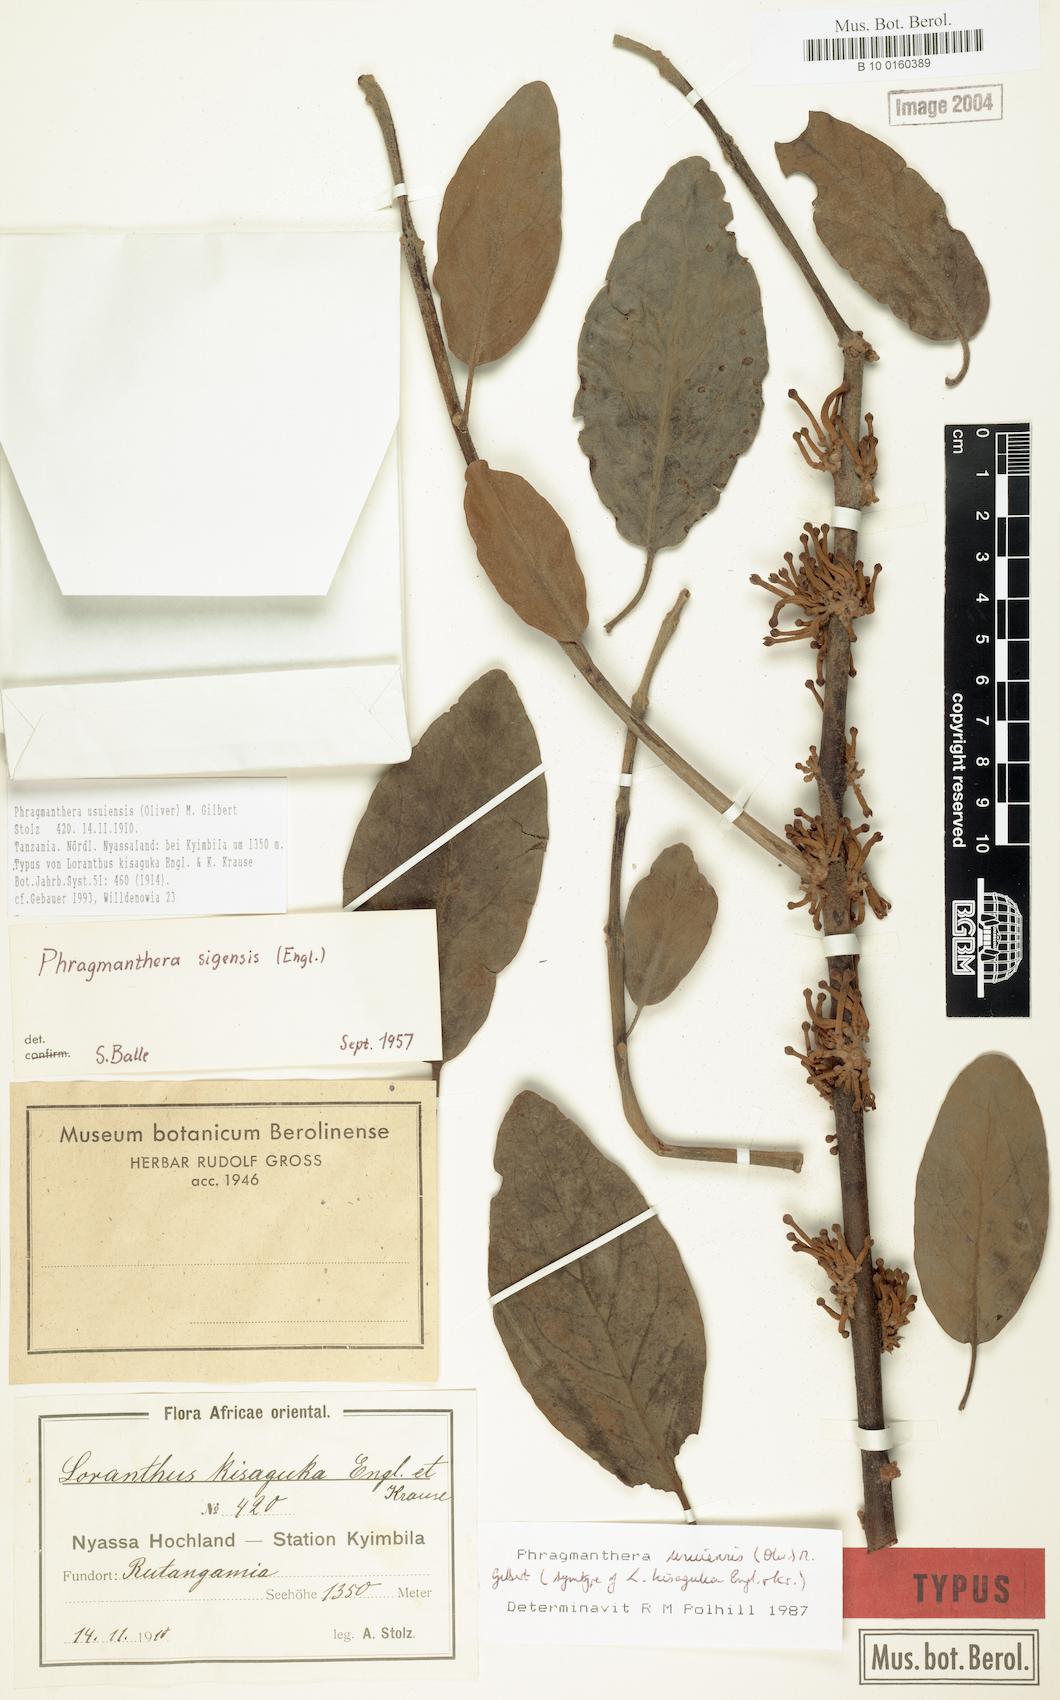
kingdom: Plantae
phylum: Tracheophyta
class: Magnoliopsida
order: Santalales
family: Loranthaceae
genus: Phragmanthera
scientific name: Phragmanthera usuiensis
